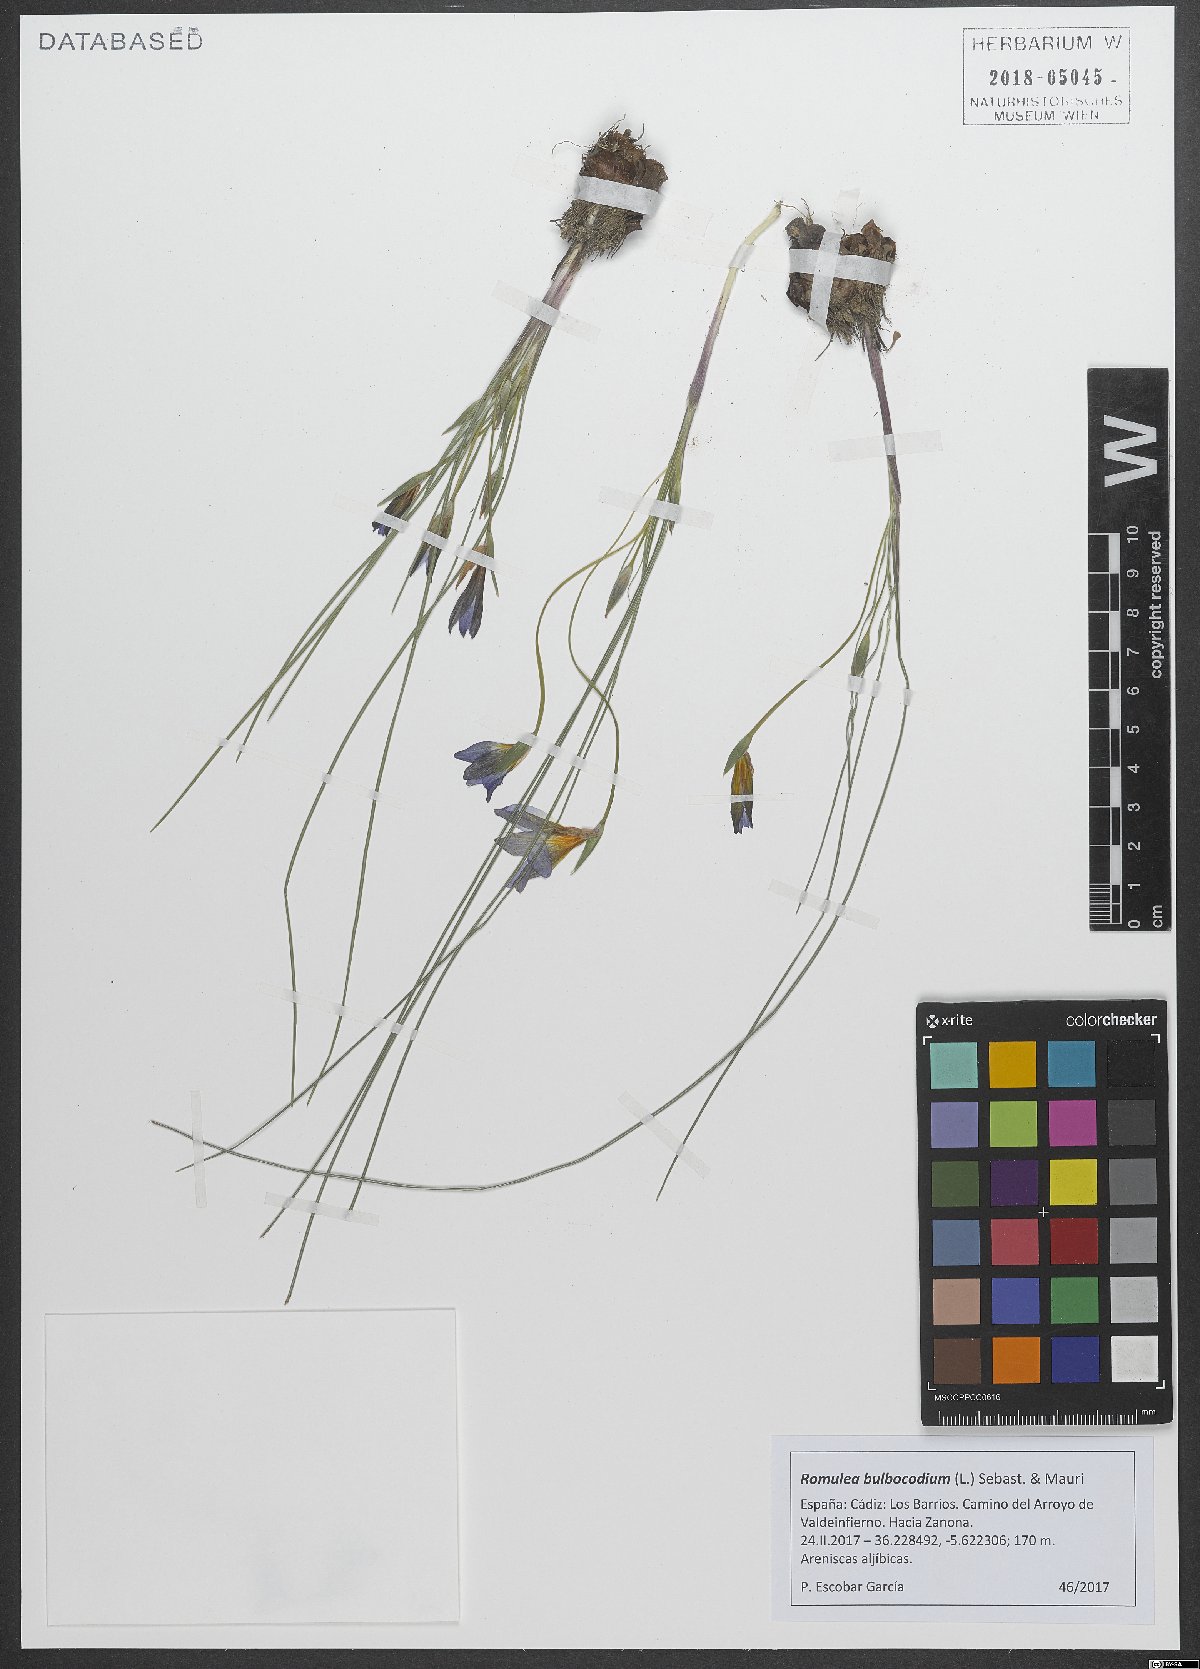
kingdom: Plantae
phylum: Tracheophyta
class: Liliopsida
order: Asparagales
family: Iridaceae
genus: Romulea
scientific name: Romulea bulbocodium
